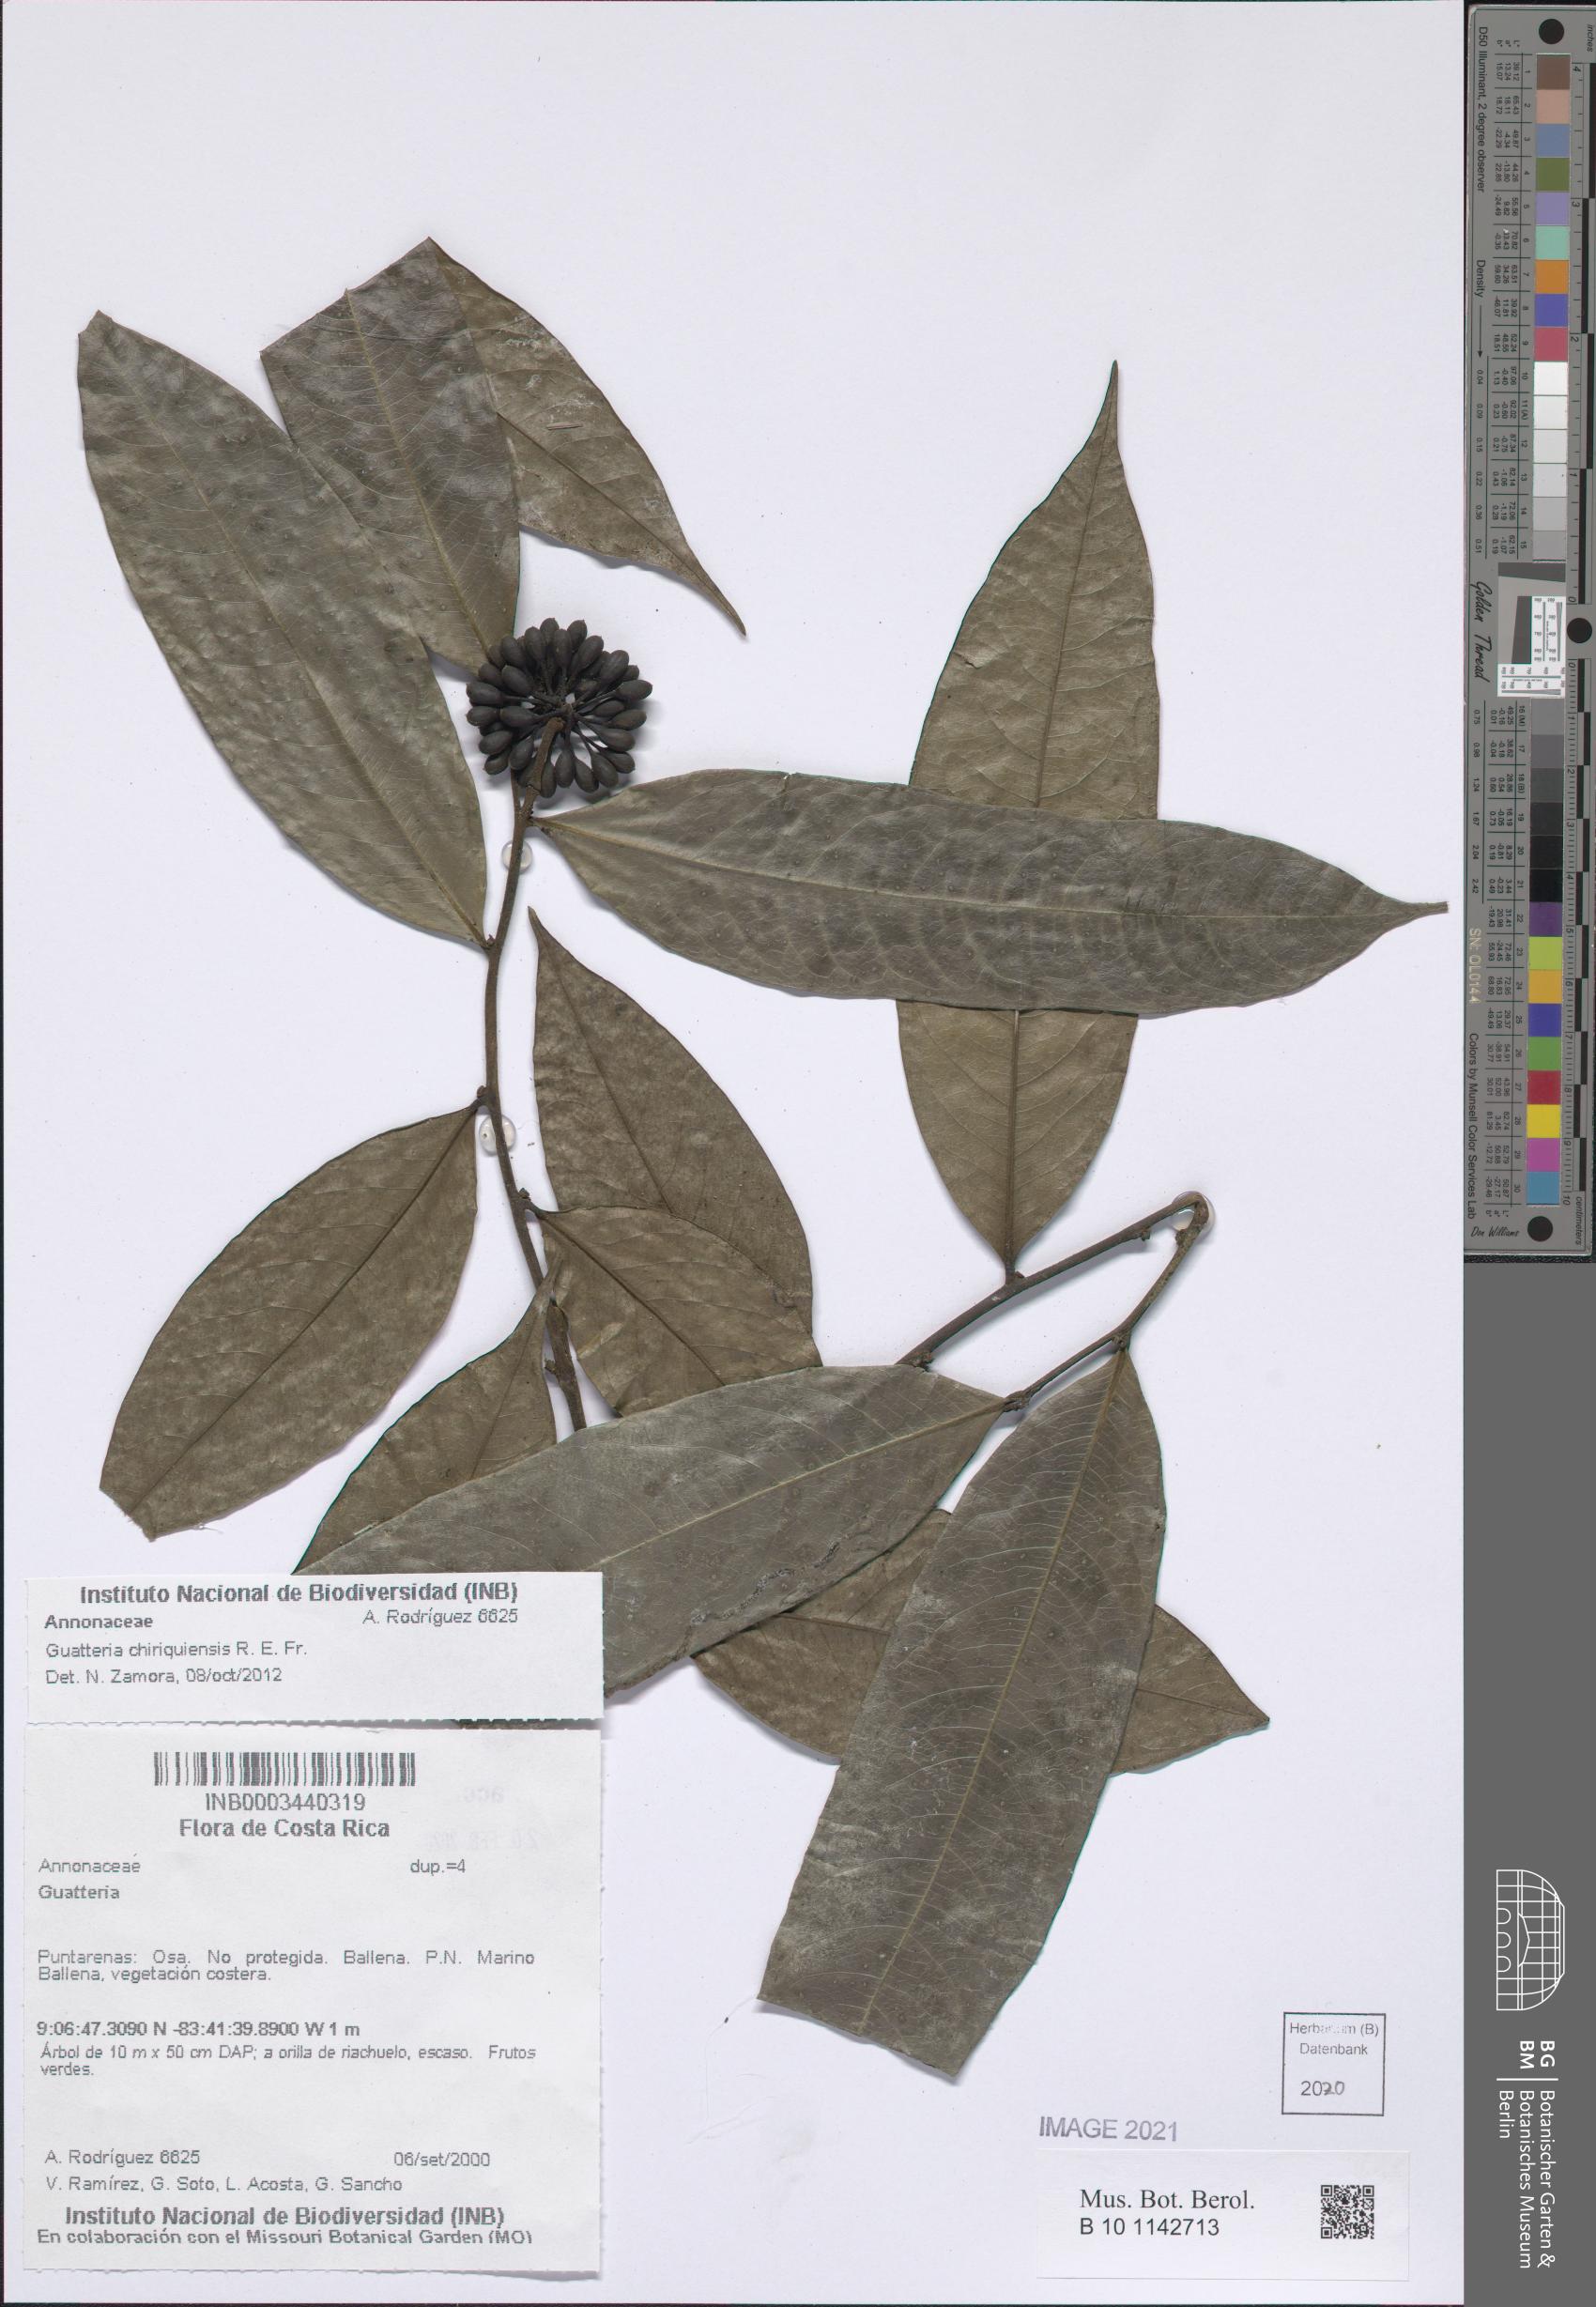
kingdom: Plantae
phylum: Tracheophyta
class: Magnoliopsida
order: Magnoliales
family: Annonaceae
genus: Guatteria
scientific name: Guatteria chiriquiensis
